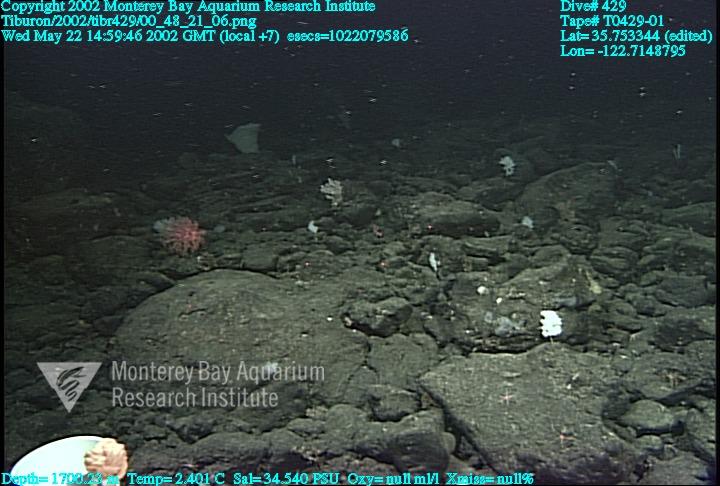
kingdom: Animalia
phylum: Porifera
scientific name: Porifera
